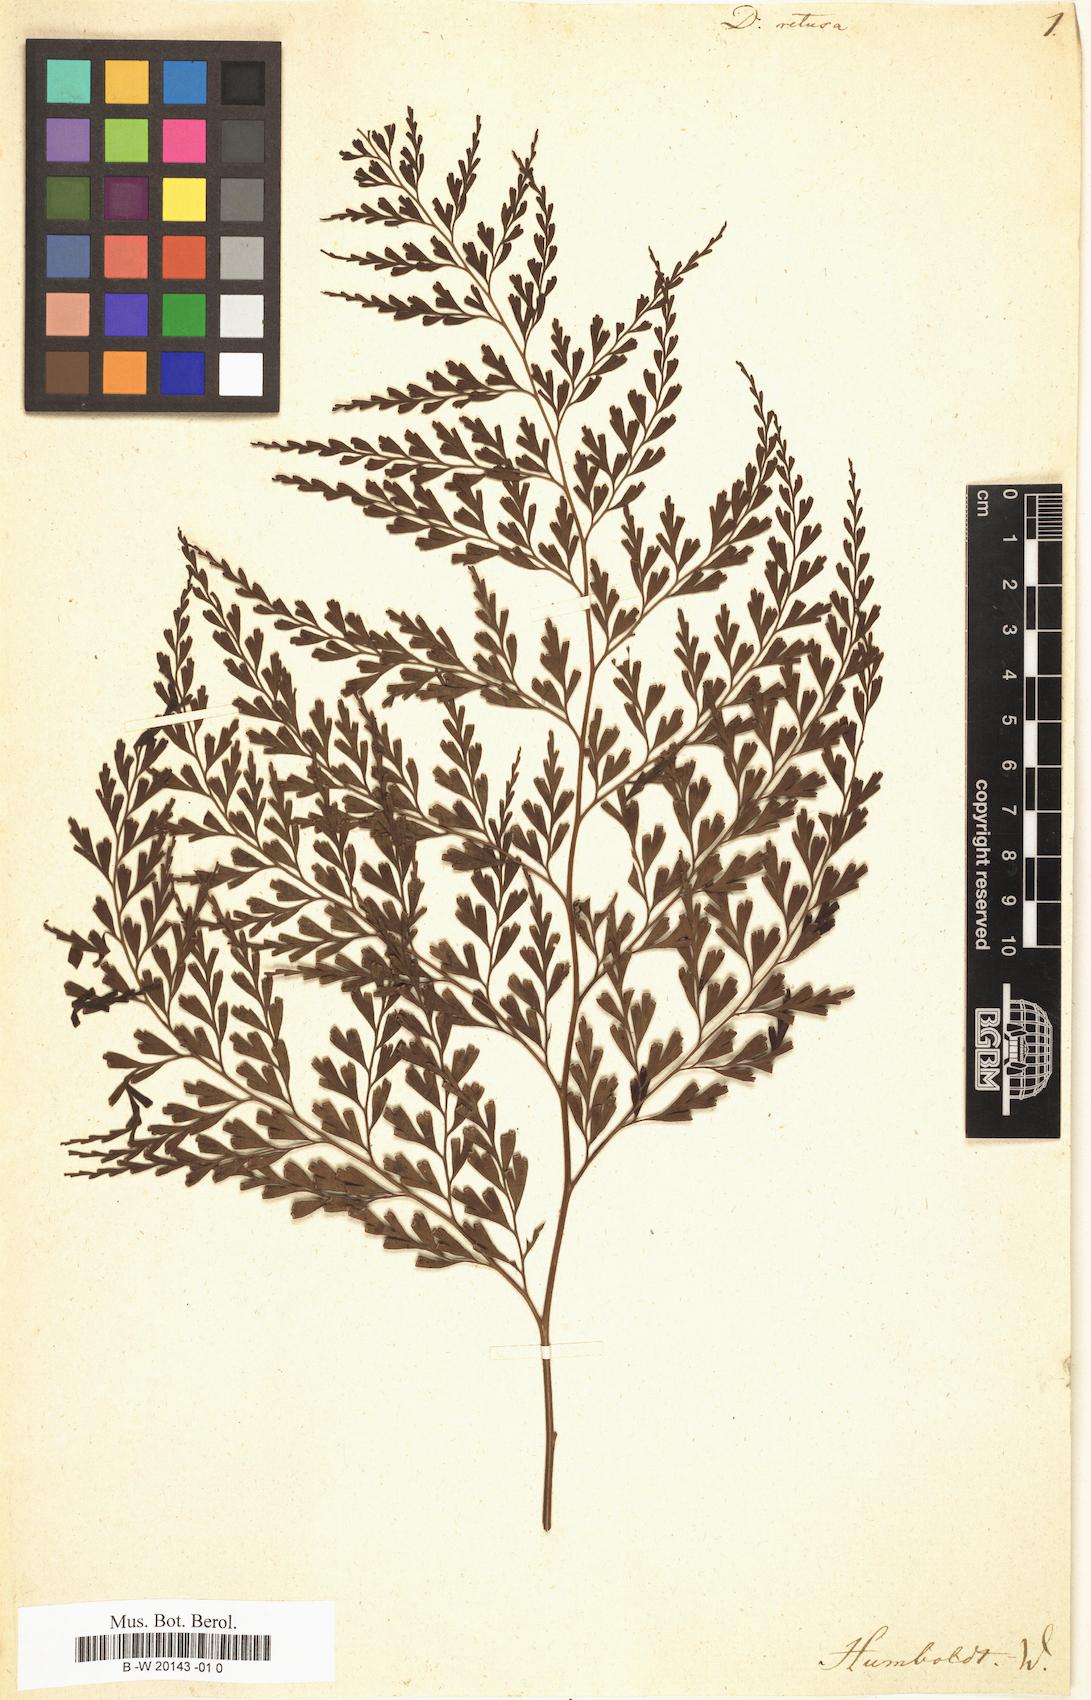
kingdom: Plantae
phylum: Tracheophyta
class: Polypodiopsida
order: Polypodiales
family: Lindsaeaceae
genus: Odontosoria
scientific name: Odontosoria retusa
